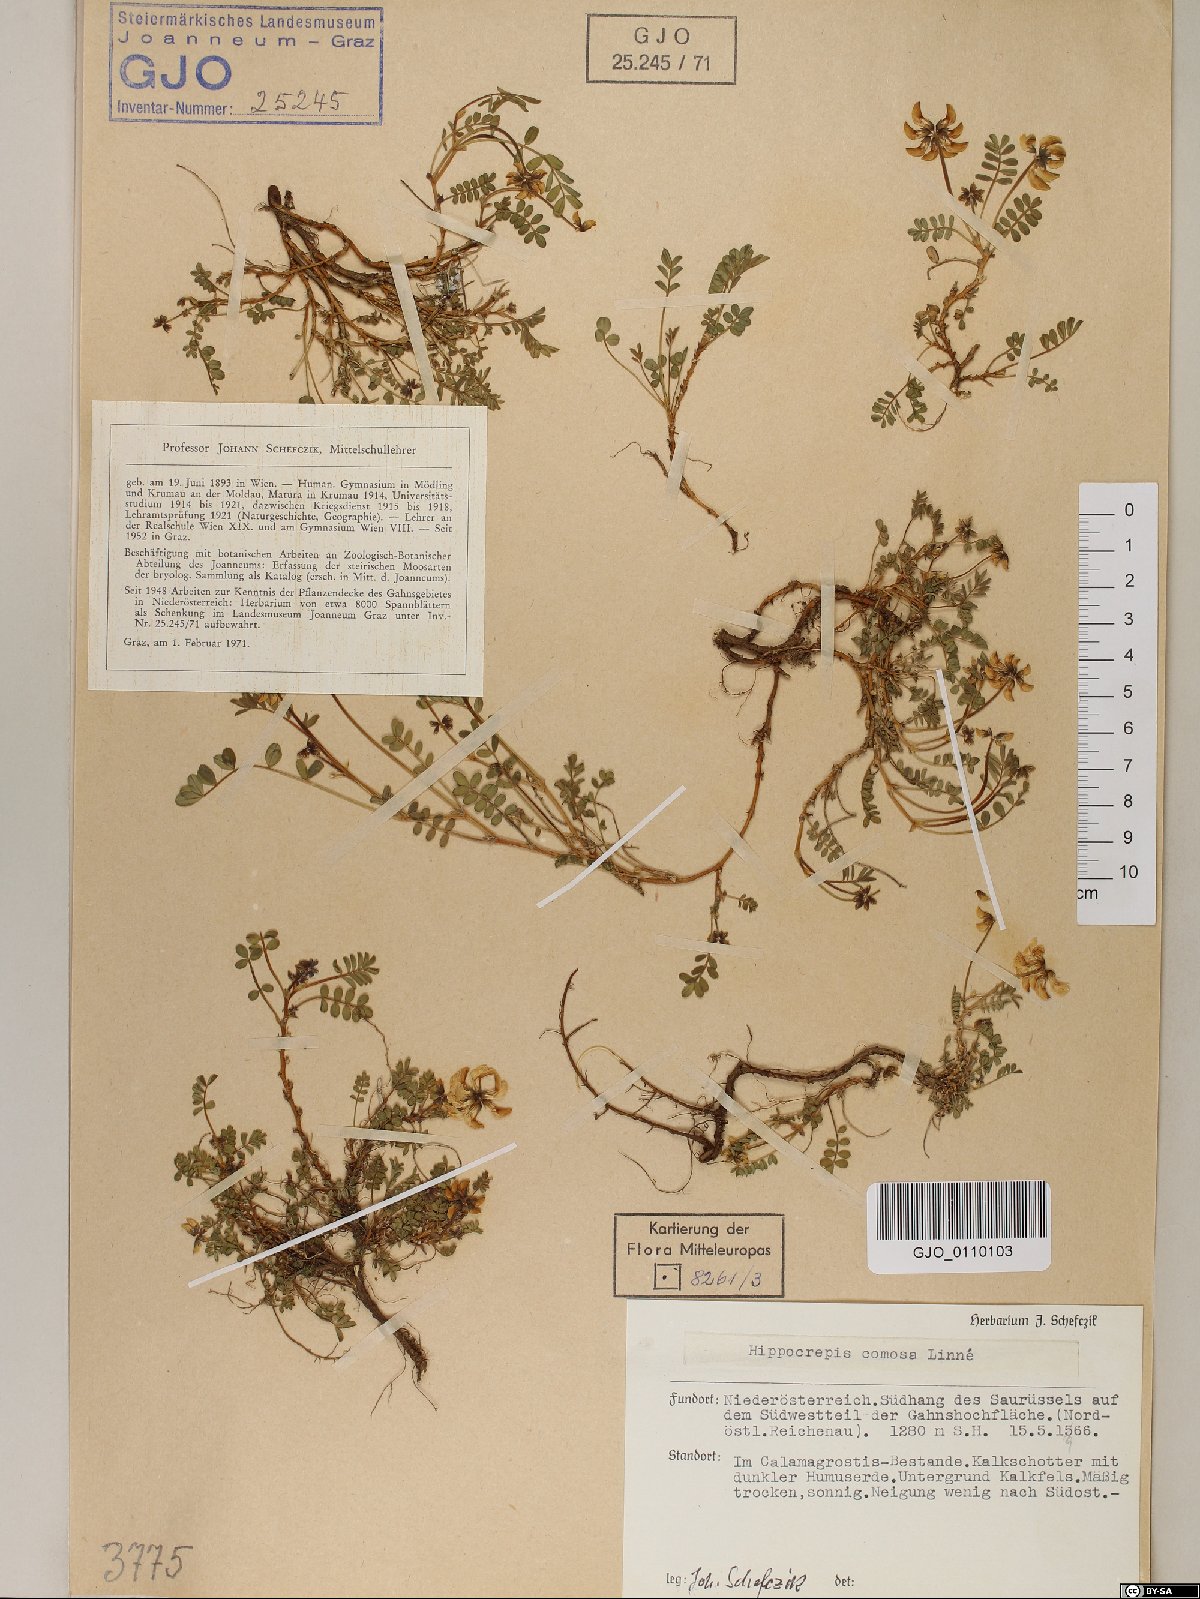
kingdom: Plantae
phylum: Tracheophyta
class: Magnoliopsida
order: Fabales
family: Fabaceae
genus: Hippocrepis
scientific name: Hippocrepis comosa
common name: Horseshoe vetch
